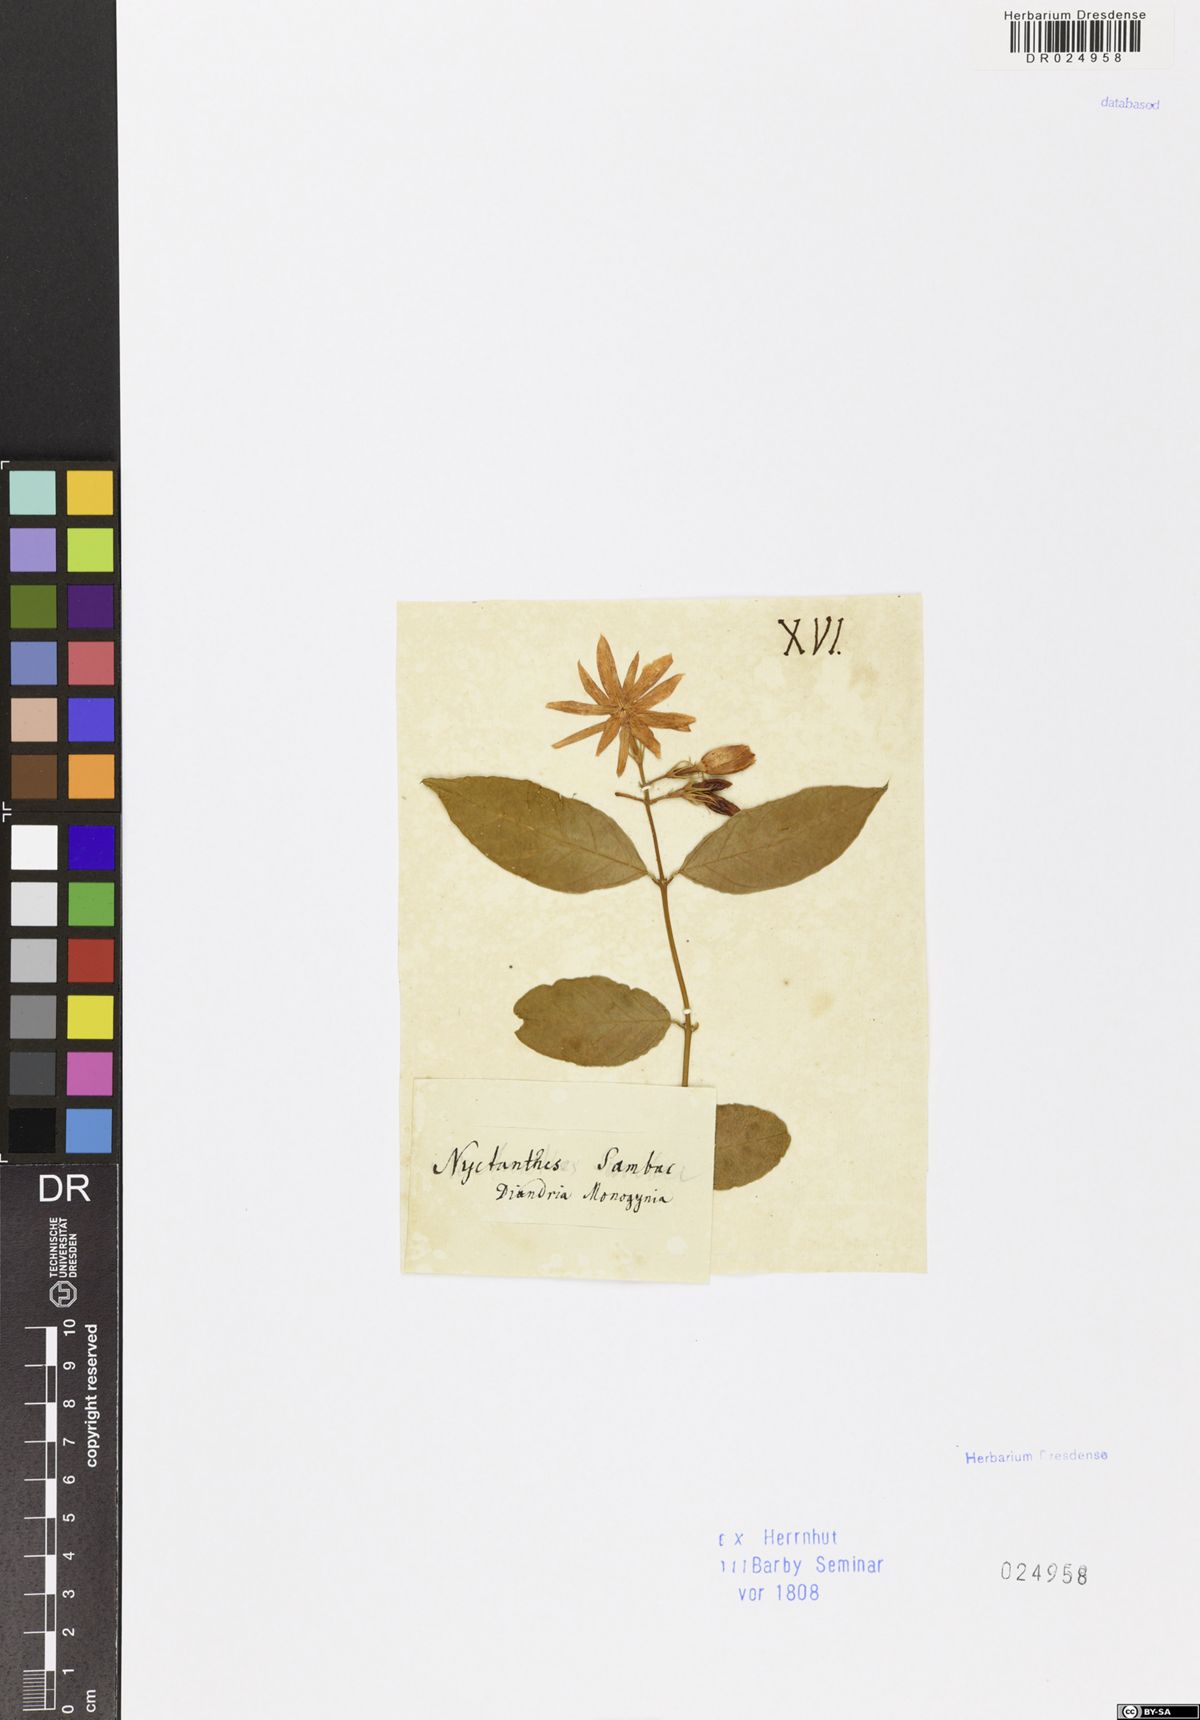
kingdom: Plantae
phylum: Tracheophyta
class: Magnoliopsida
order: Lamiales
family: Oleaceae
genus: Jasminum
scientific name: Jasminum sambac
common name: Arabian jasmine
